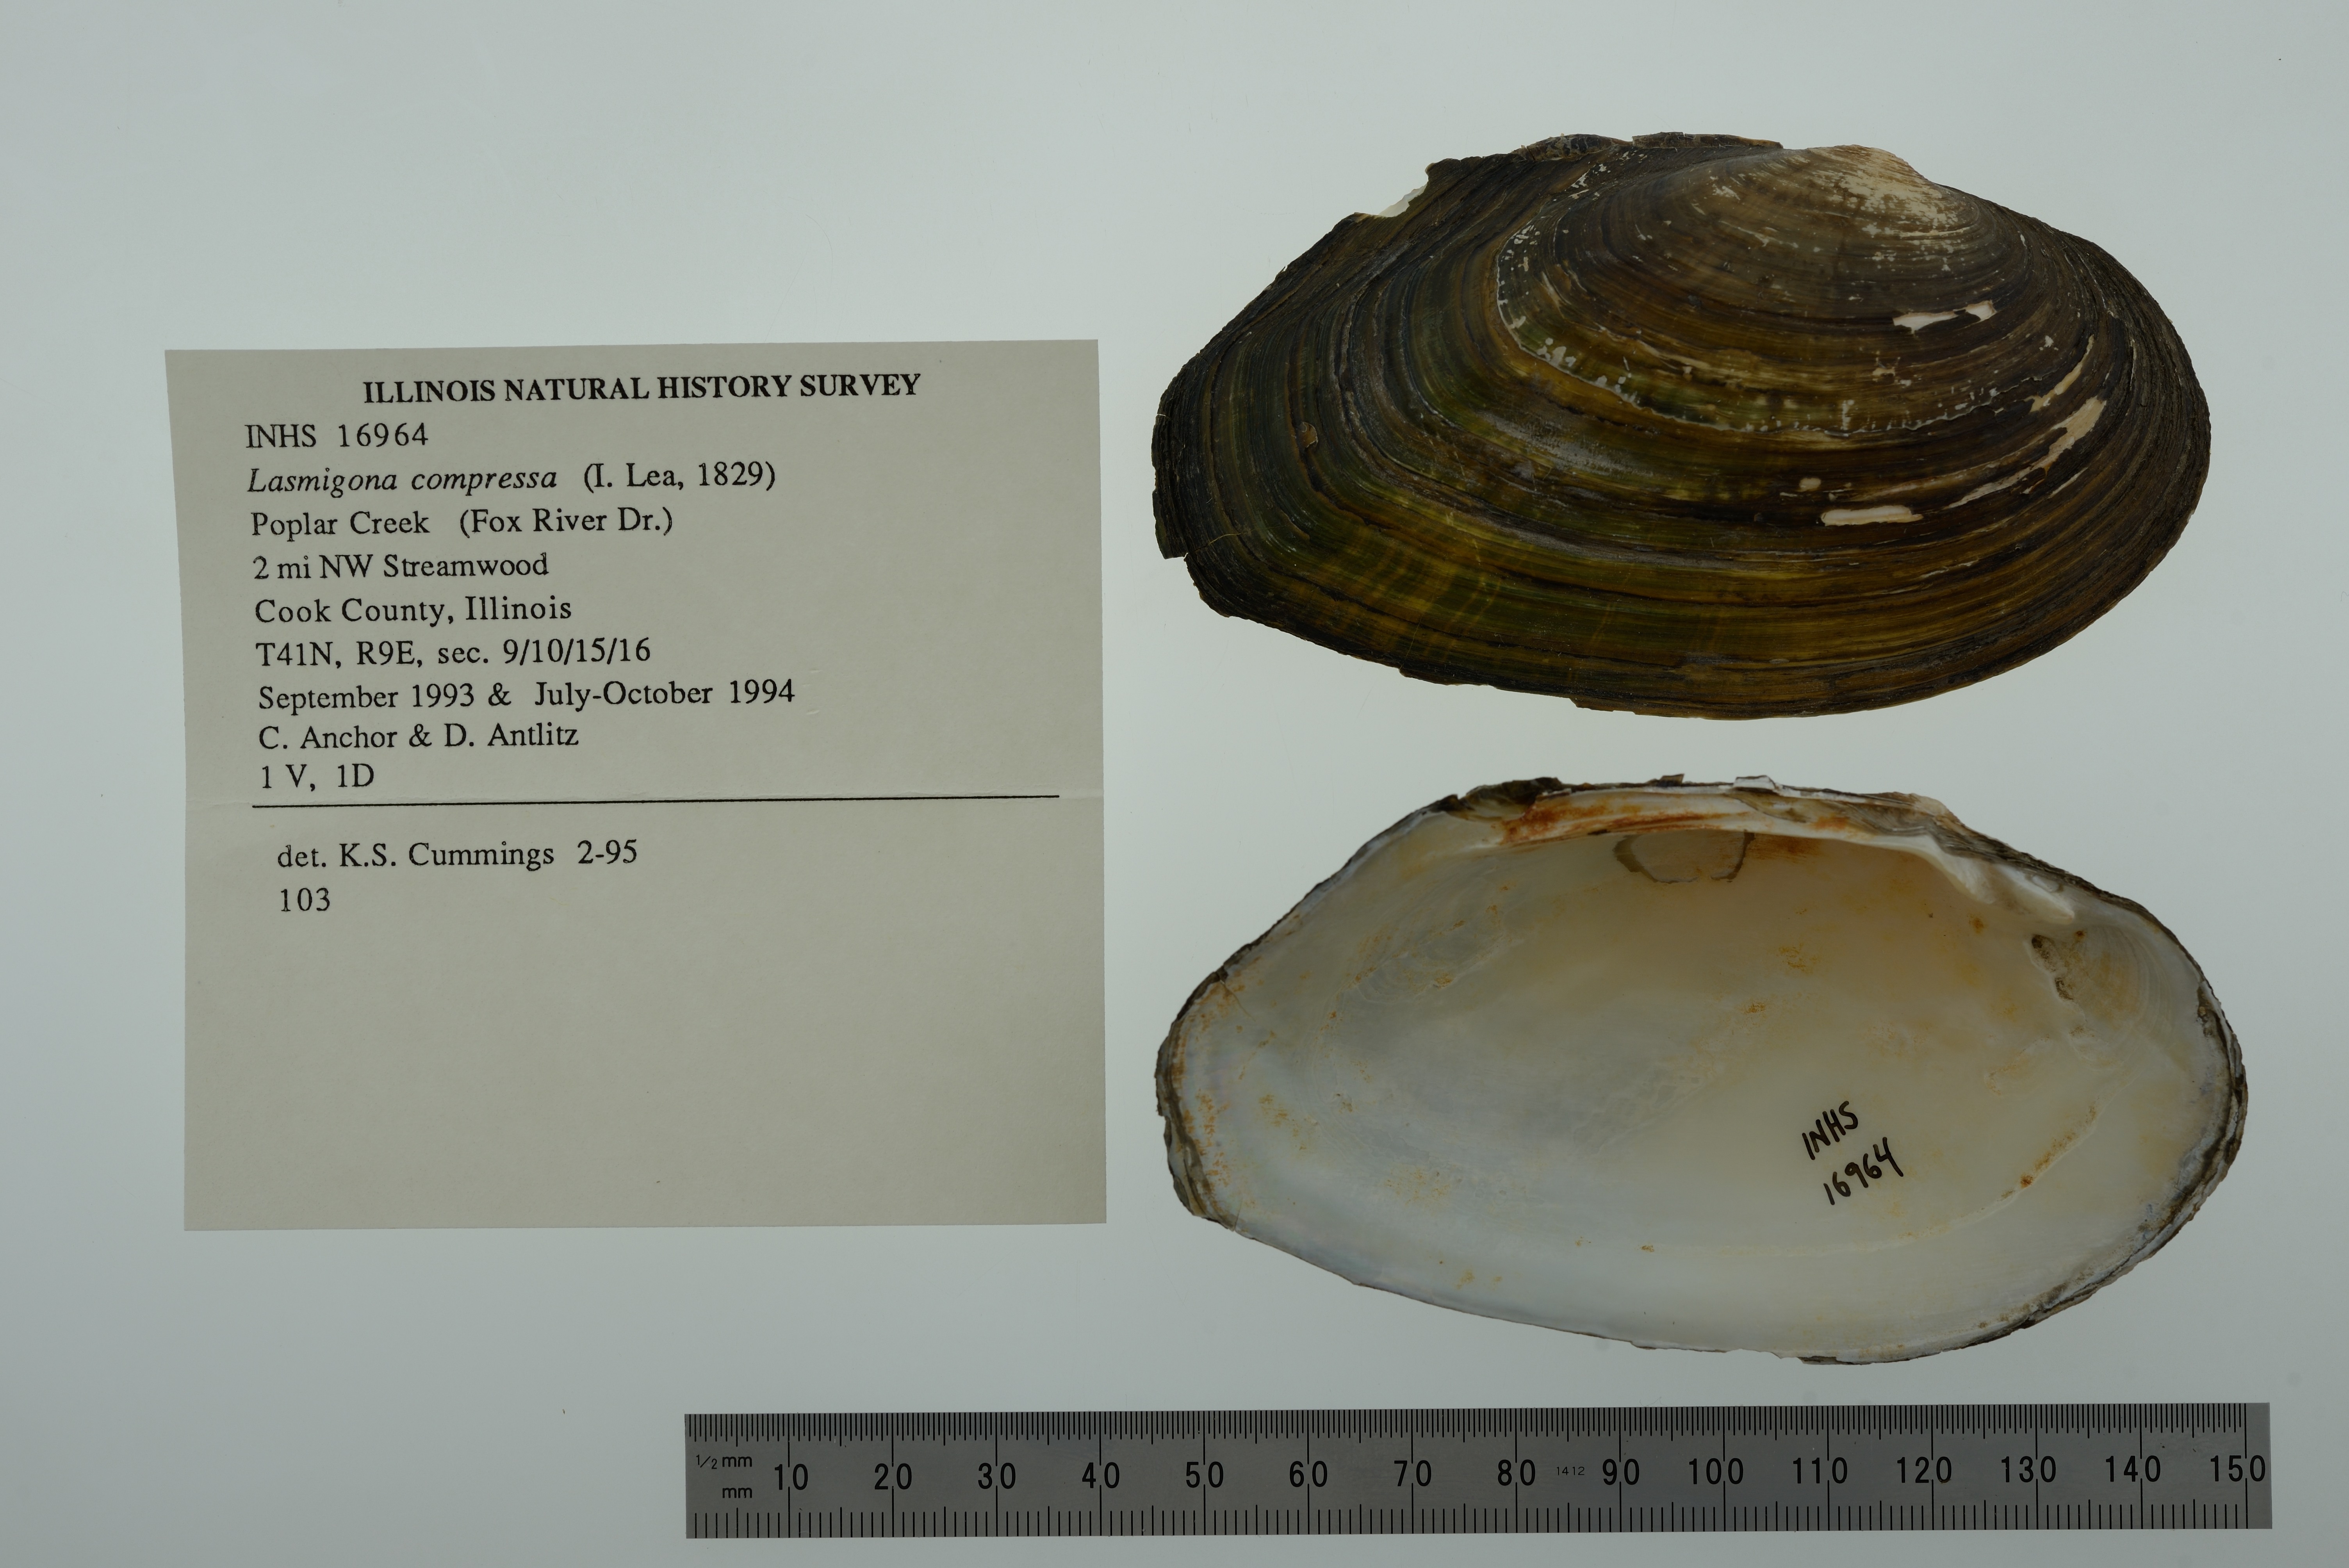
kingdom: Animalia
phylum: Mollusca
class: Bivalvia
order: Unionida
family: Unionidae
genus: Lasmigona
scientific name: Lasmigona compressa
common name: Creek heelsplitter
